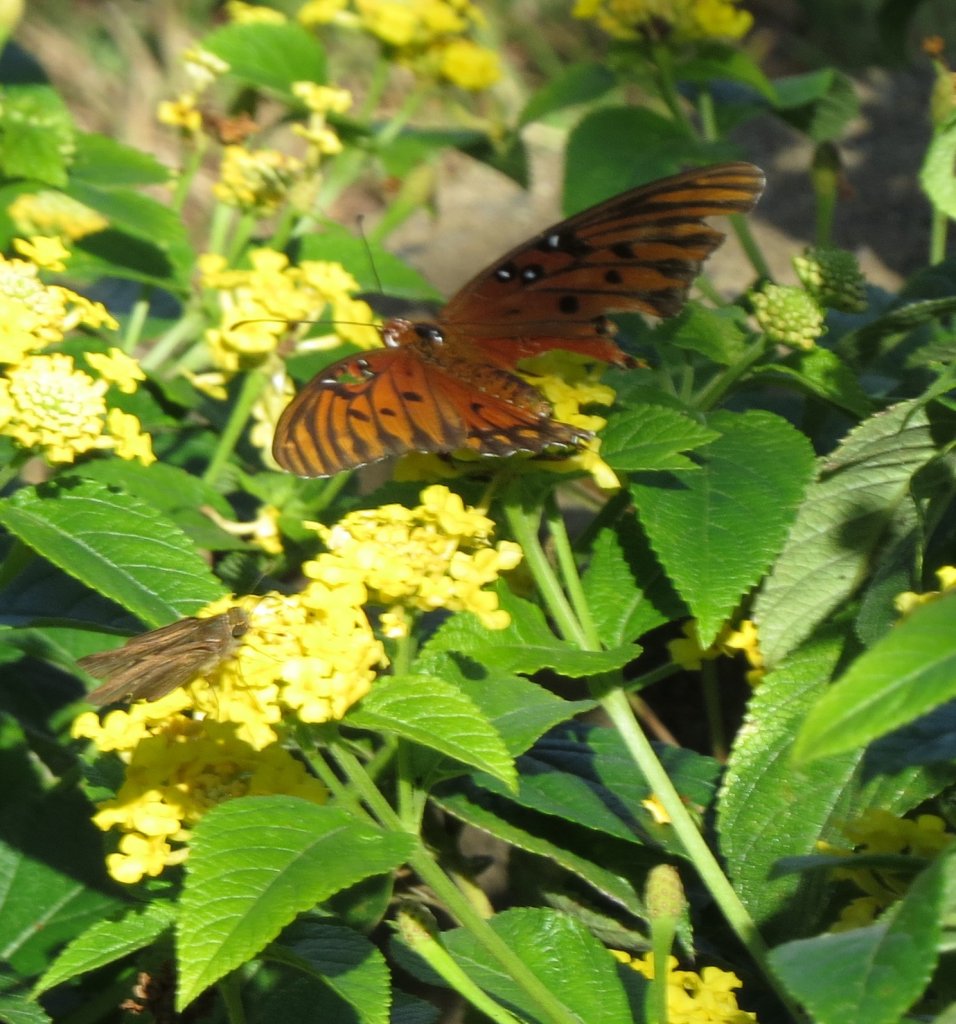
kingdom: Animalia
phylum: Arthropoda
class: Insecta
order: Lepidoptera
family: Nymphalidae
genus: Dione
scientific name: Dione vanillae
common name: Gulf Fritillary
